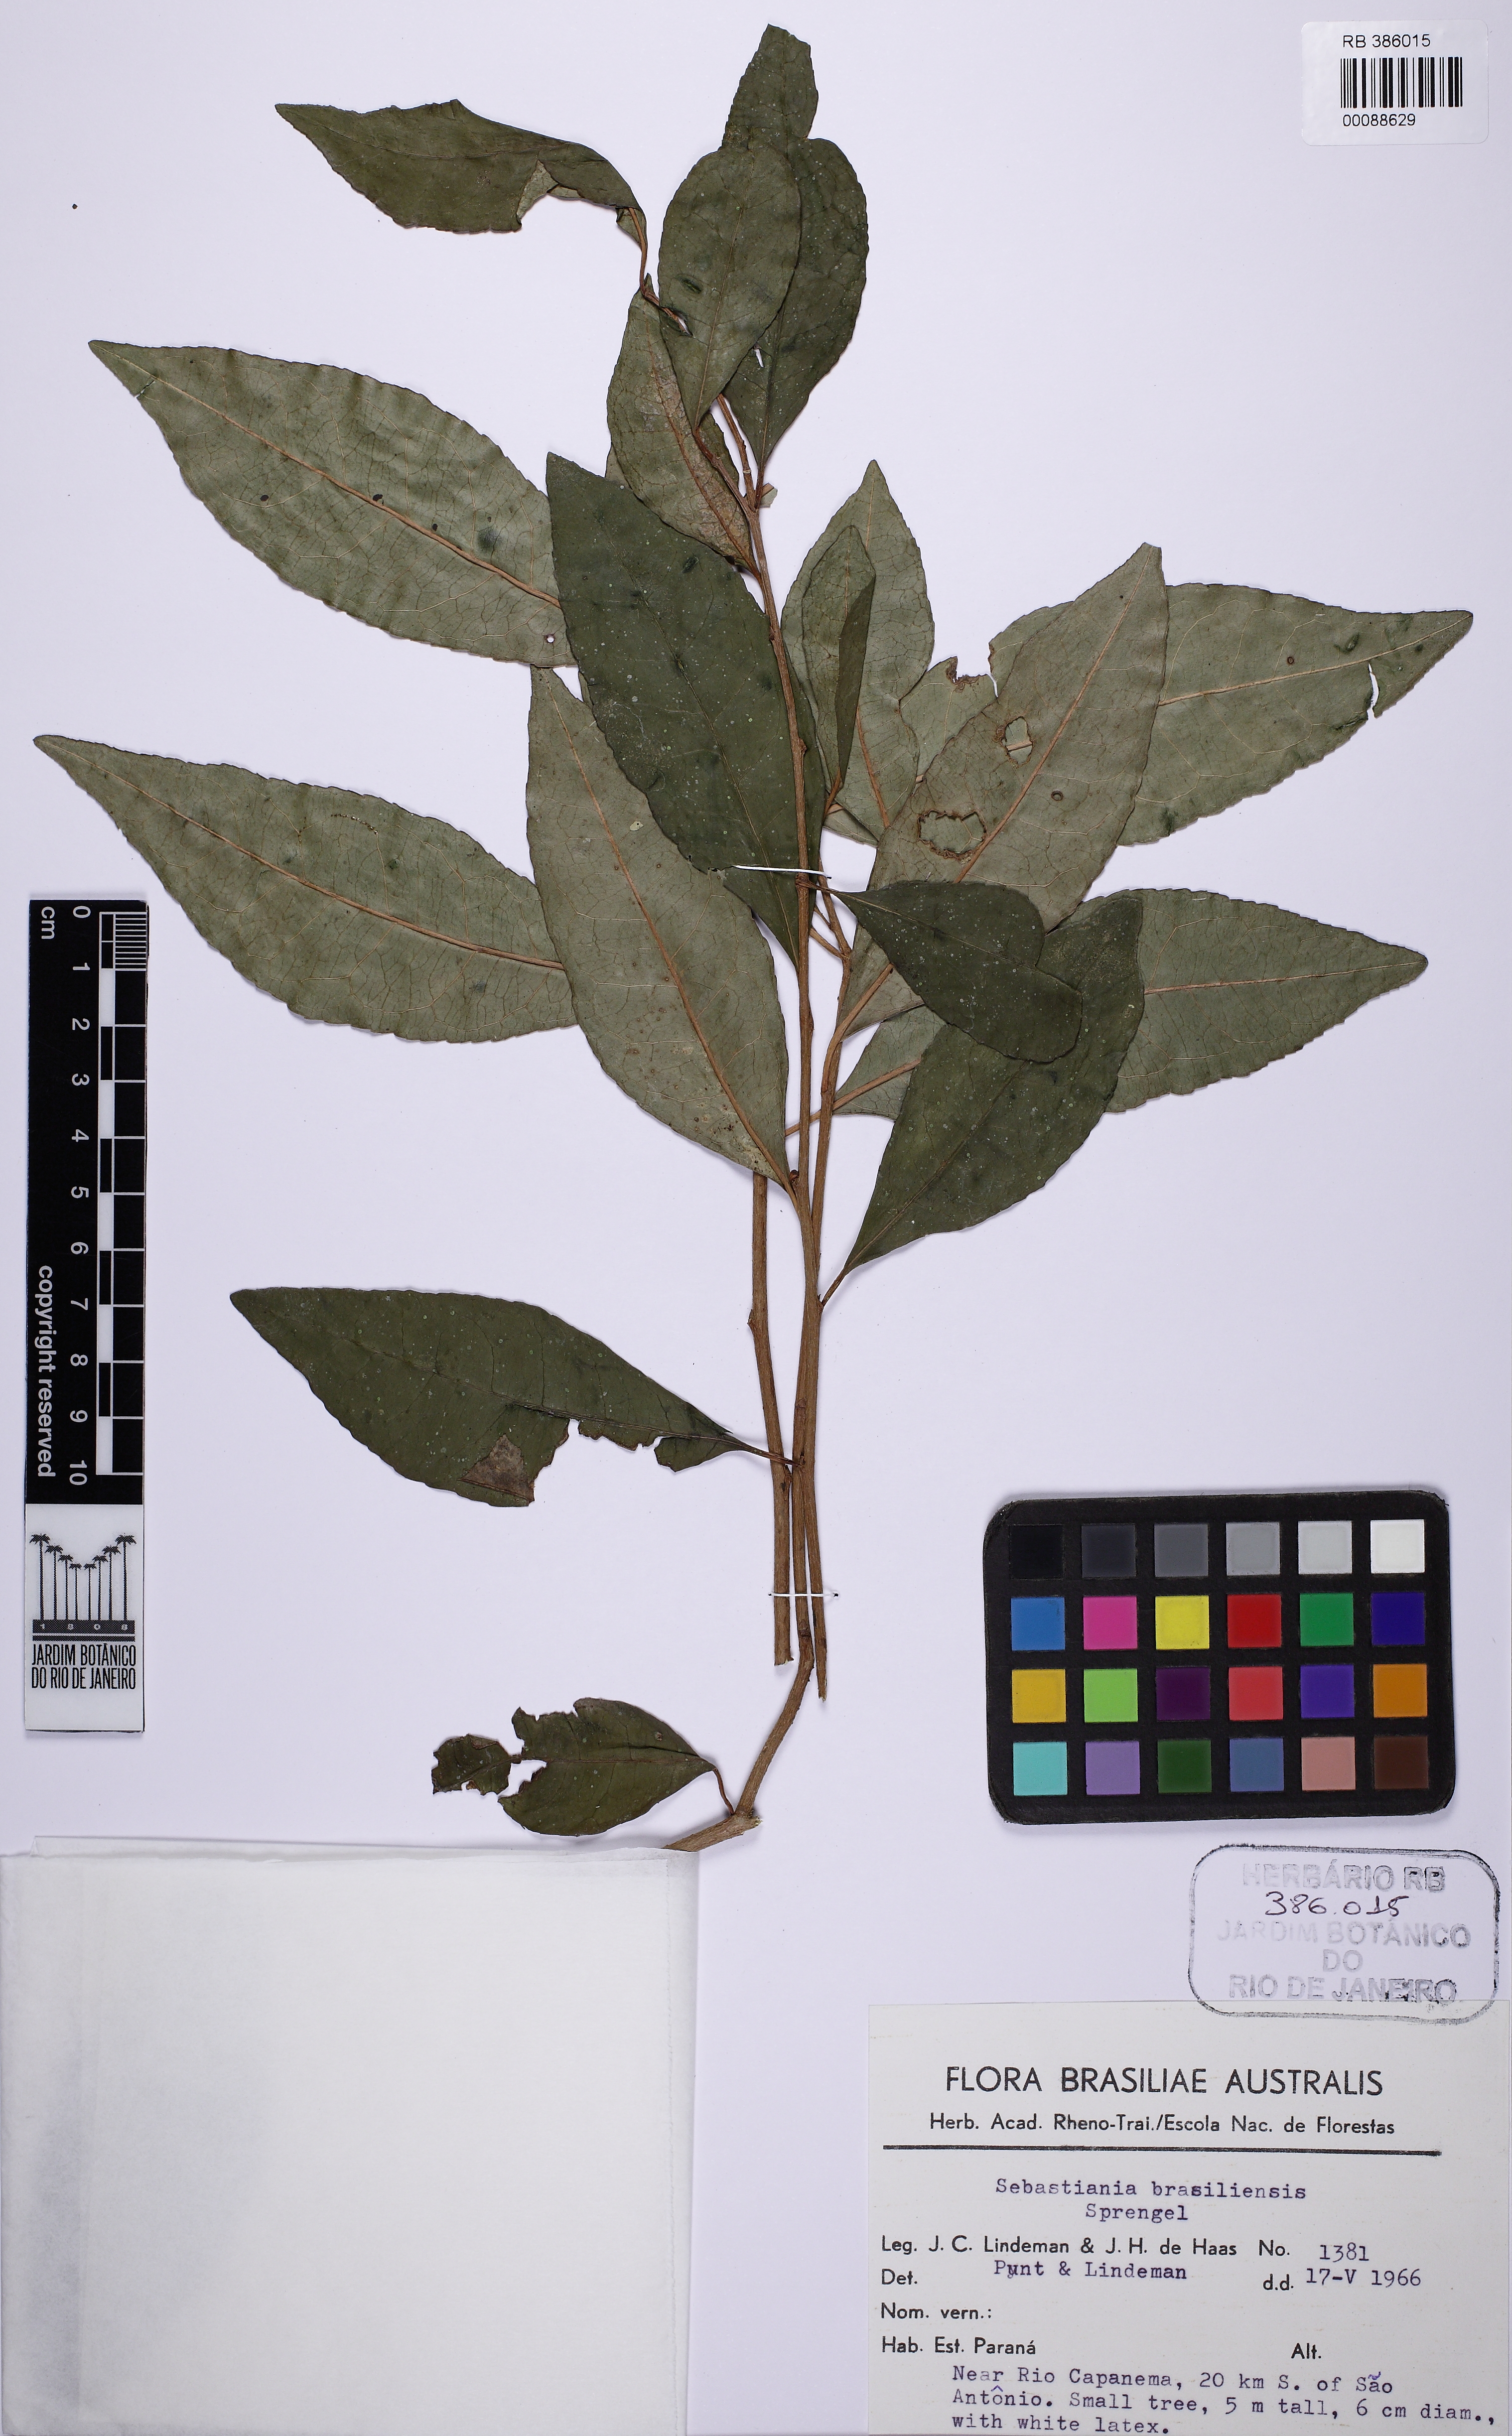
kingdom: Plantae
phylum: Tracheophyta
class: Magnoliopsida
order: Malpighiales
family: Euphorbiaceae
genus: Sebastiania
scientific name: Sebastiania brasiliensis
